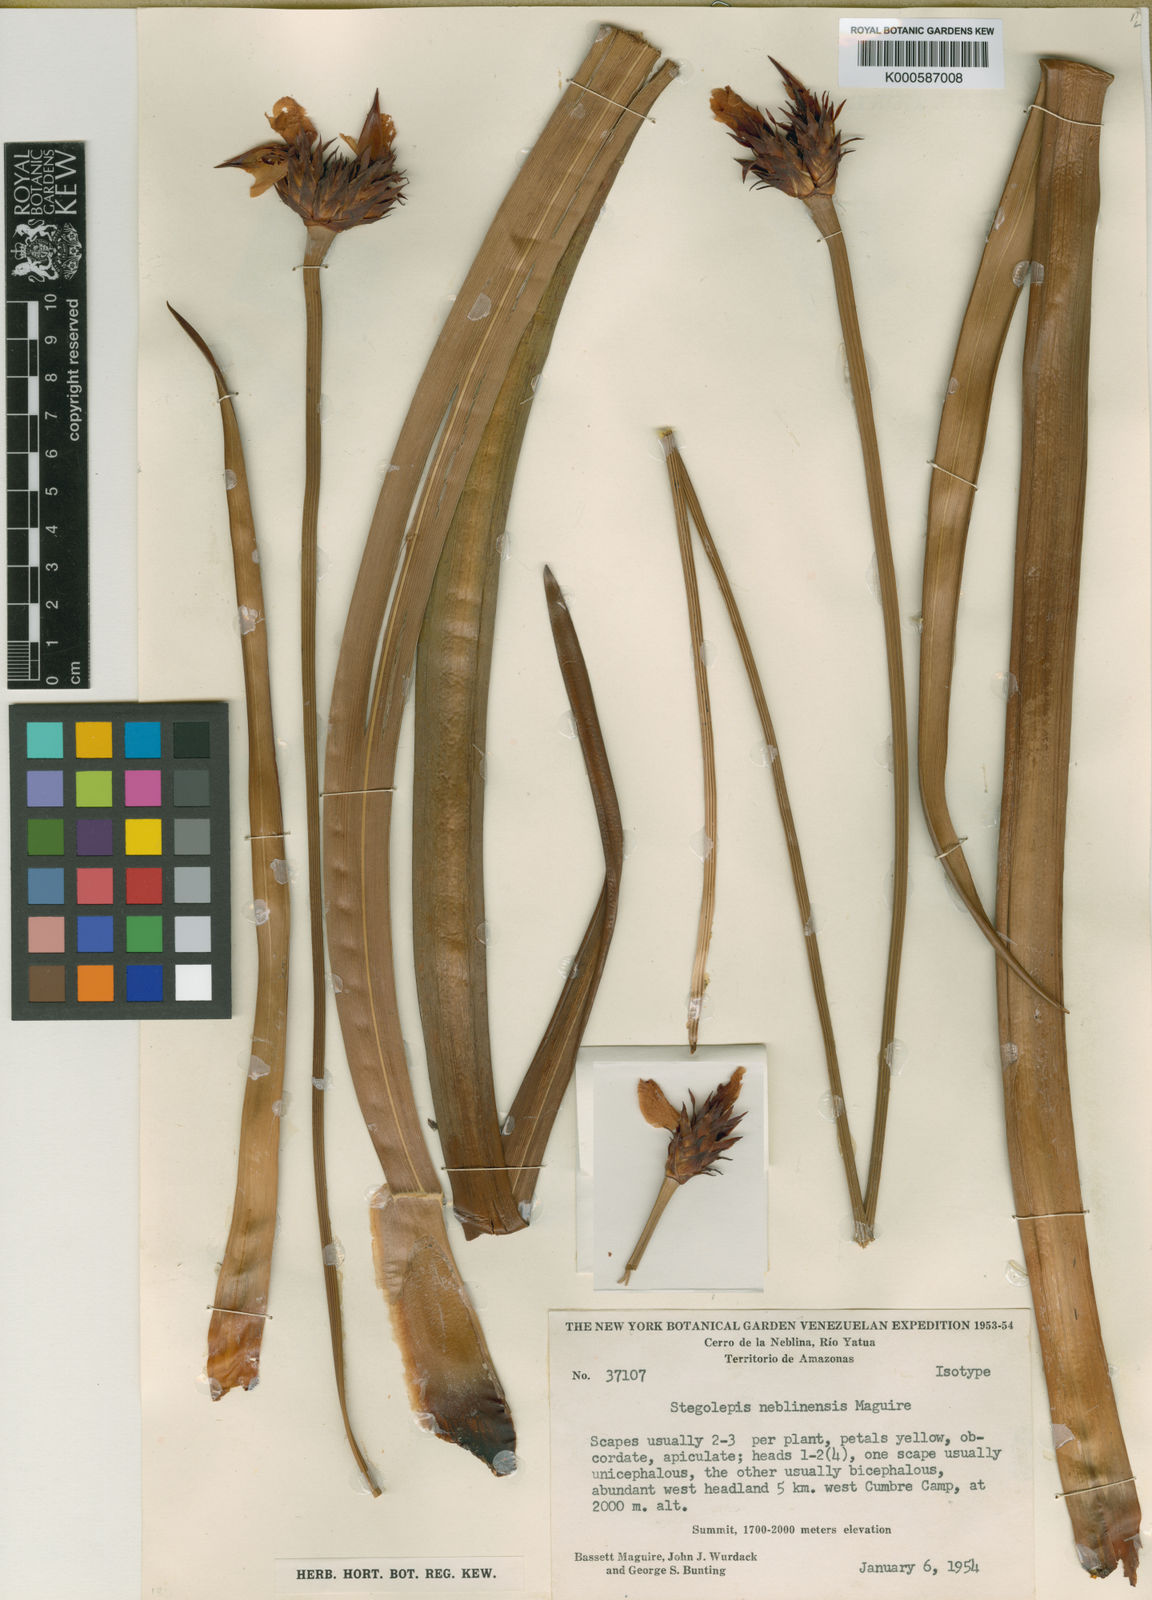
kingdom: Plantae
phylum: Tracheophyta
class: Liliopsida
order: Poales
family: Rapateaceae
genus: Stegolepis
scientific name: Stegolepis neblinensis
